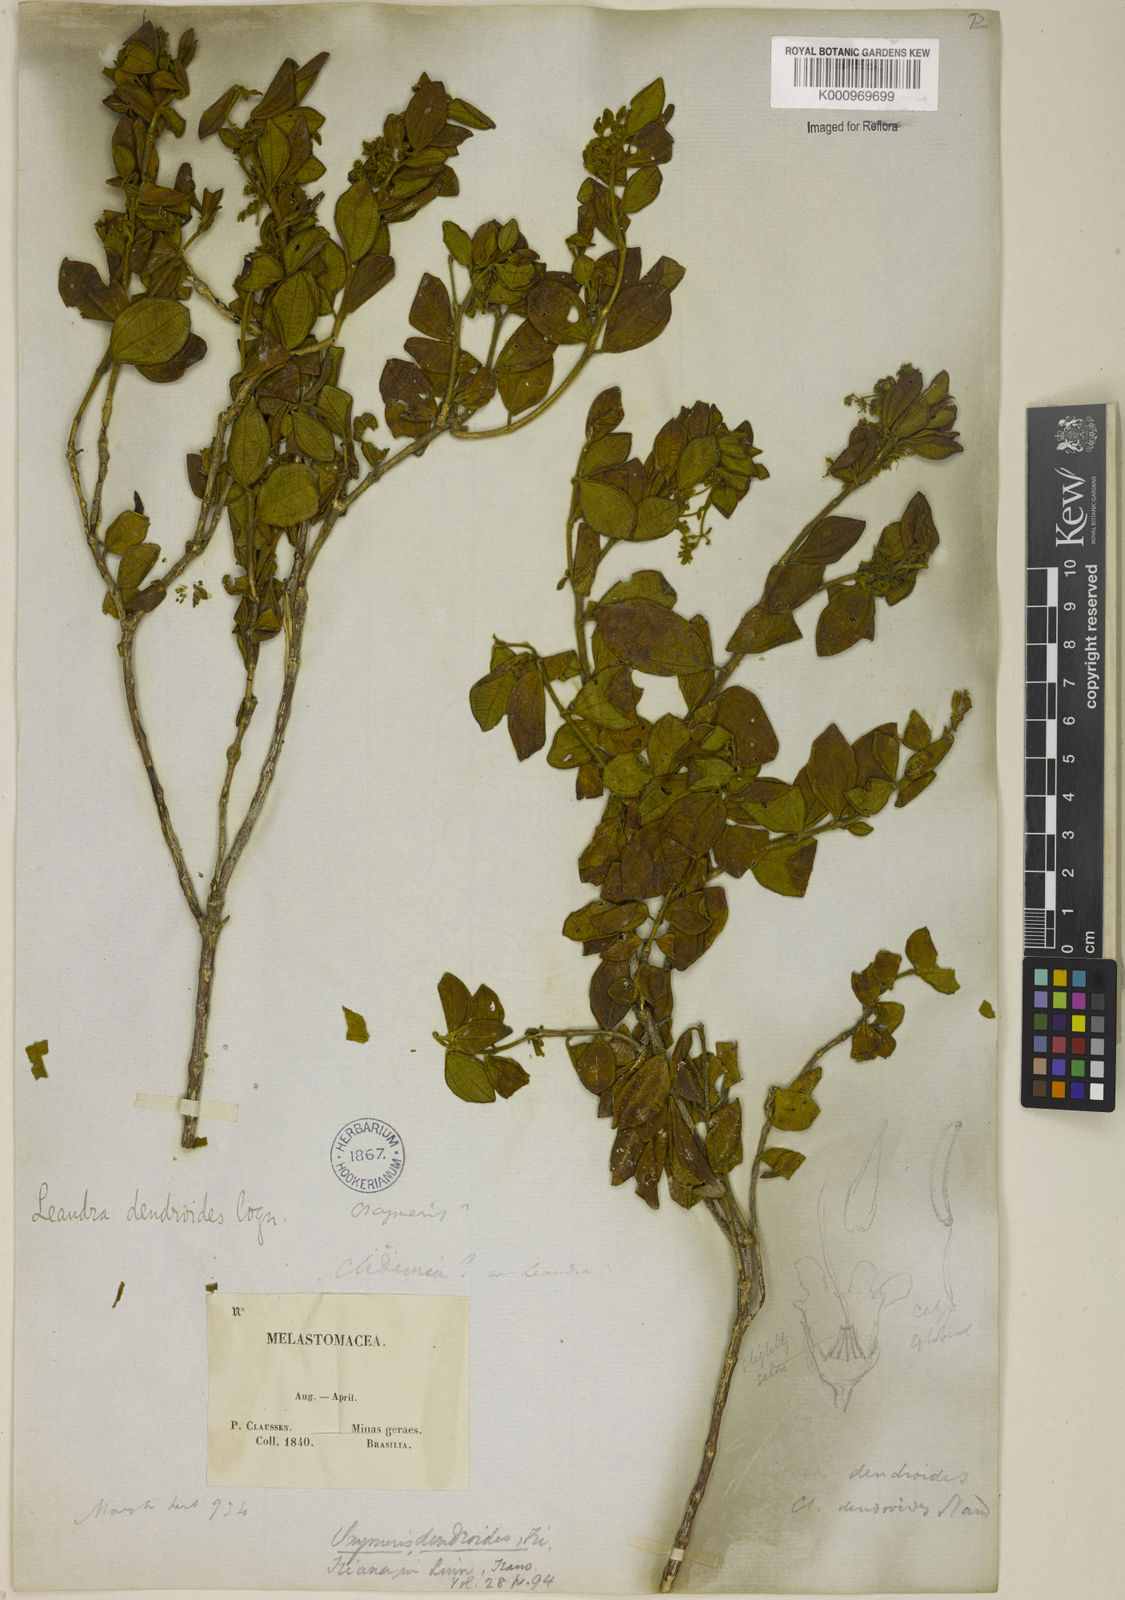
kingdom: Plantae
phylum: Tracheophyta
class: Magnoliopsida
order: Myrtales
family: Melastomataceae
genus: Miconia
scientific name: Miconia dendroides
